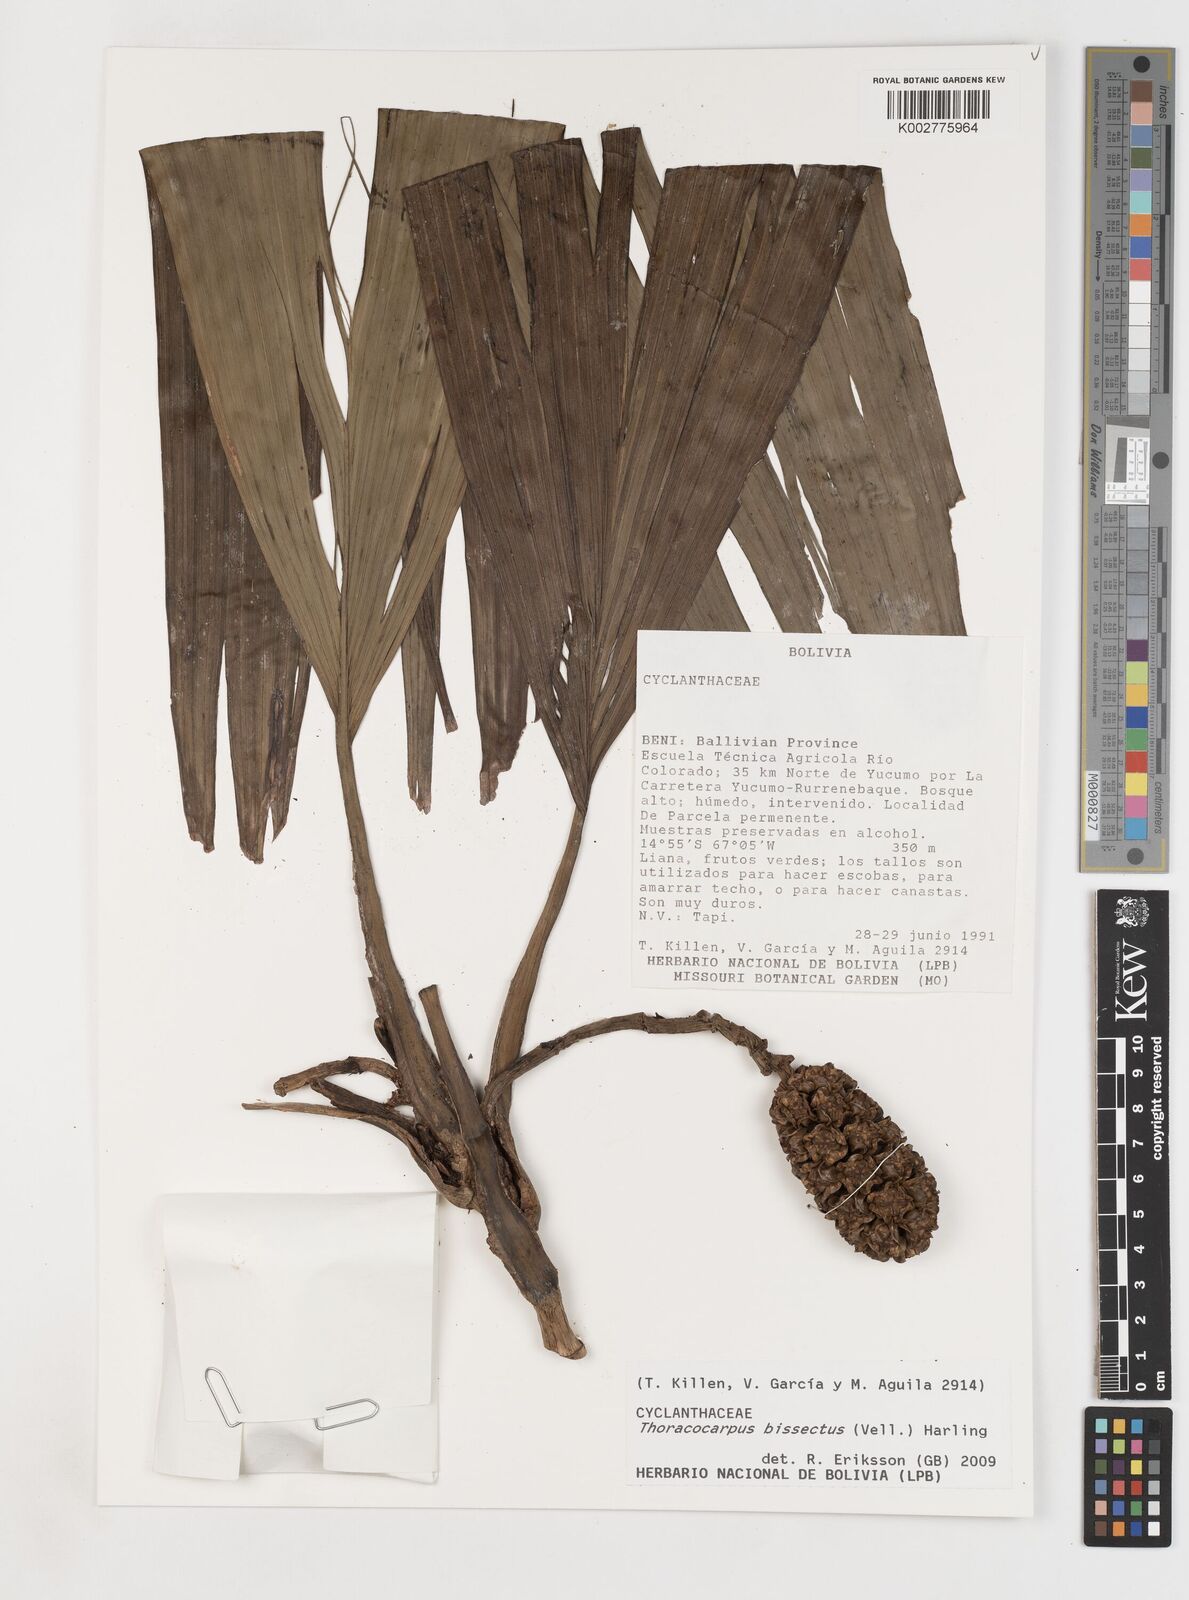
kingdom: Plantae
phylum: Tracheophyta
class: Liliopsida
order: Pandanales
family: Cyclanthaceae
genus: Thoracocarpus
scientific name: Thoracocarpus bissectus
